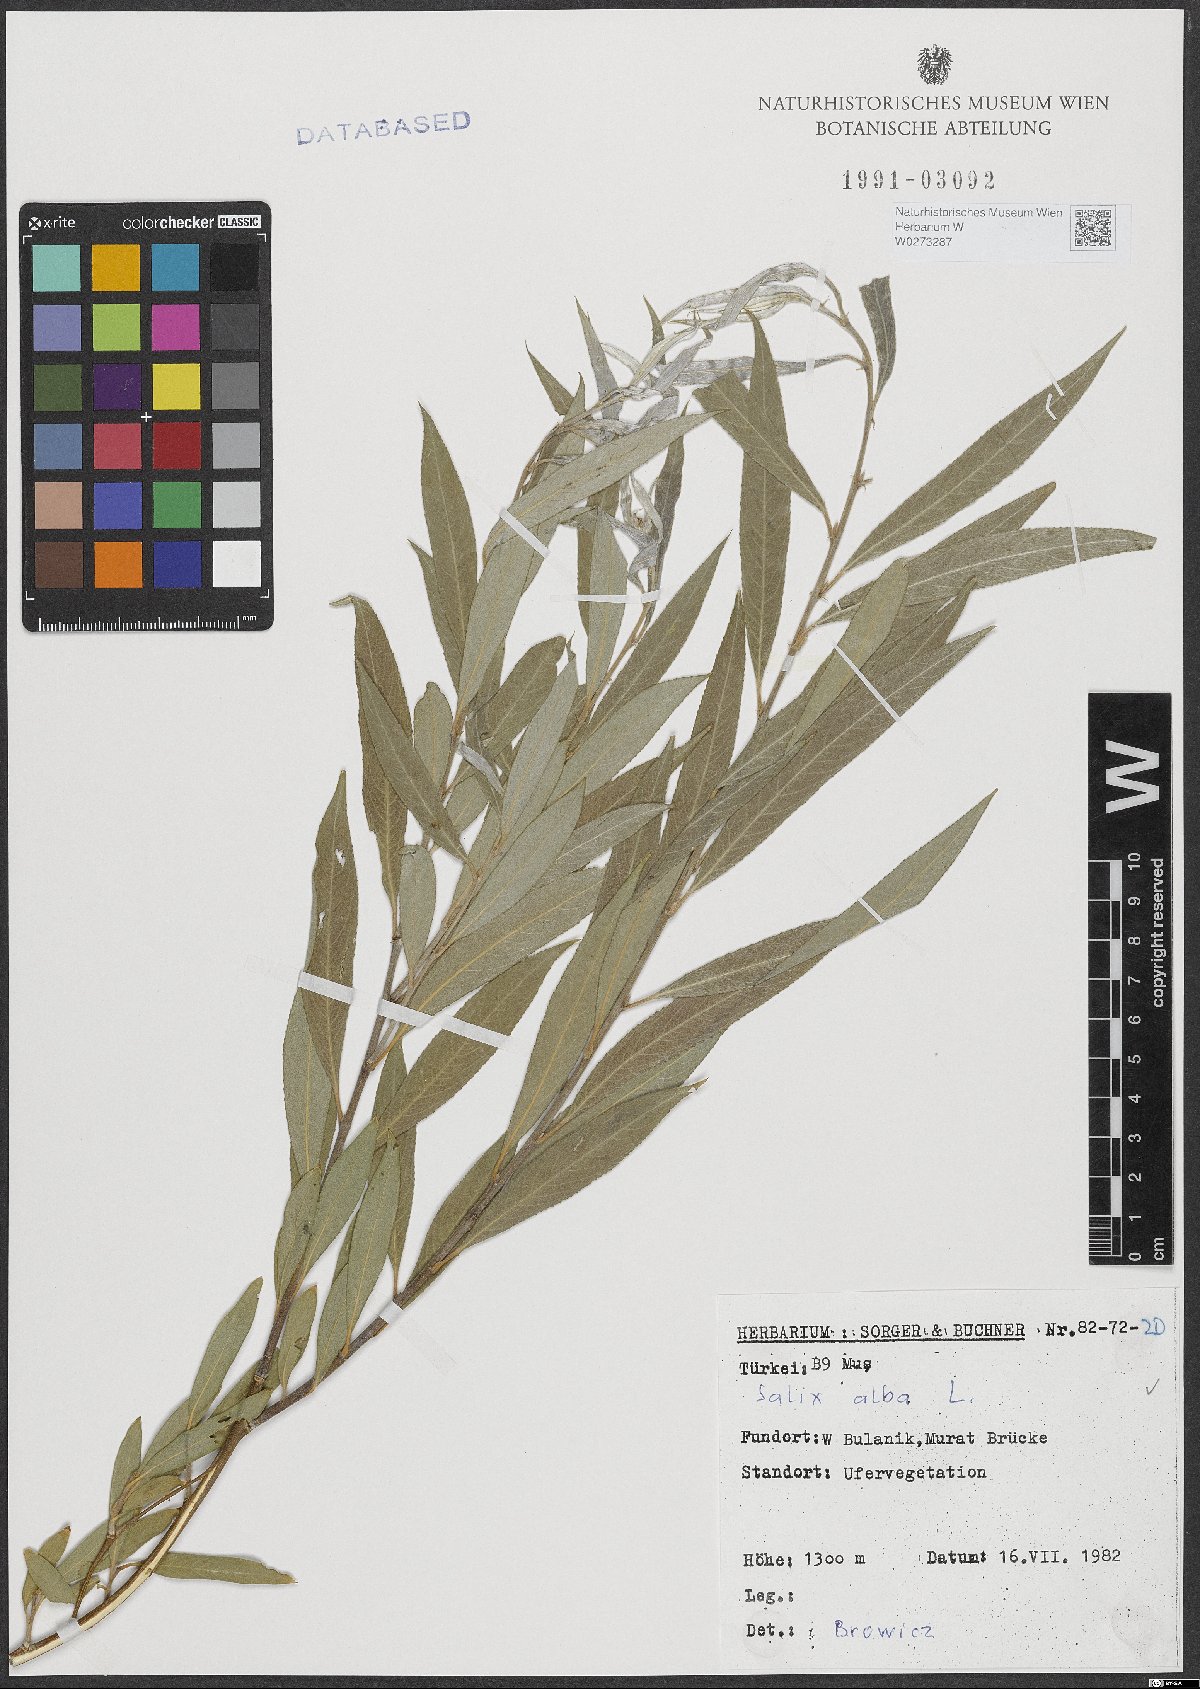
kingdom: Plantae
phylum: Tracheophyta
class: Magnoliopsida
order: Malpighiales
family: Salicaceae
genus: Salix
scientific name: Salix alba
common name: White willow
